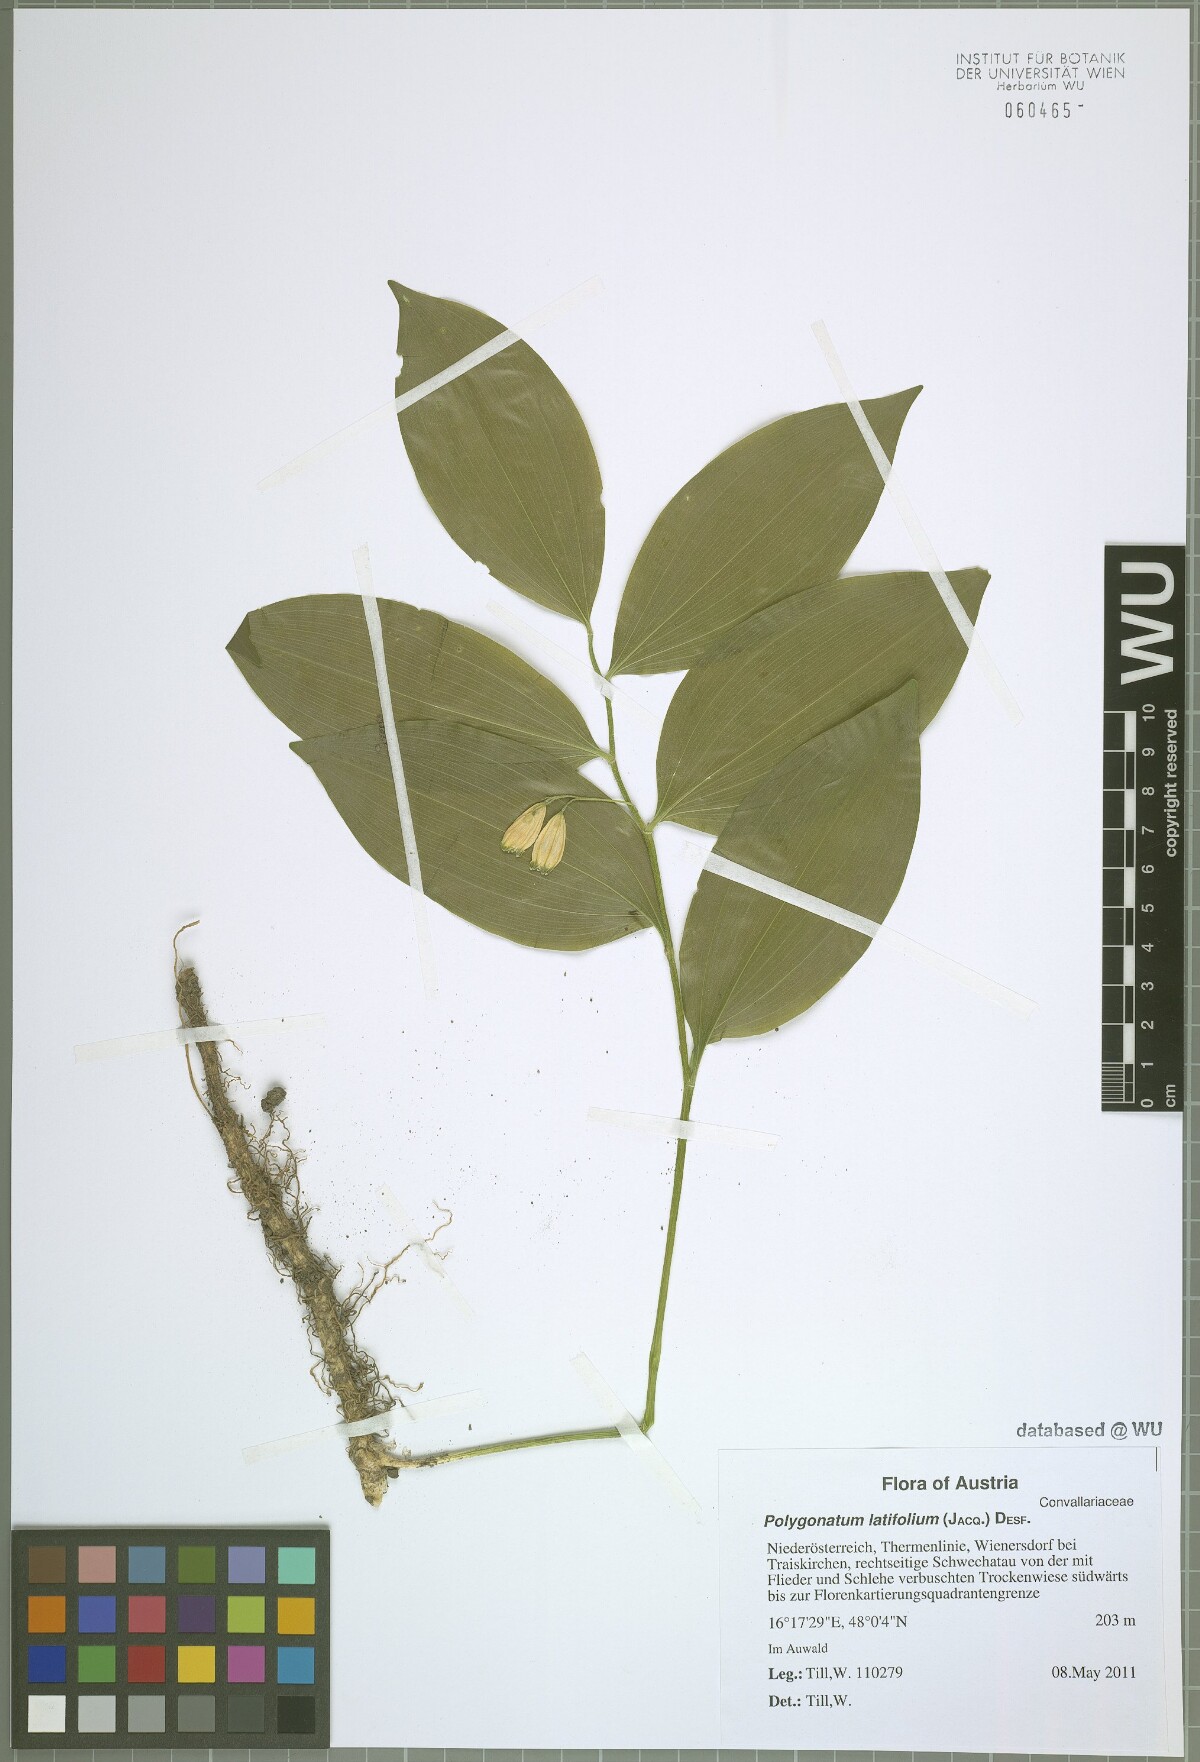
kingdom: Plantae
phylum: Tracheophyta
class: Liliopsida
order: Asparagales
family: Asparagaceae
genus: Polygonatum
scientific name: Polygonatum latifolium
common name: Broadleaf solomon's seal
